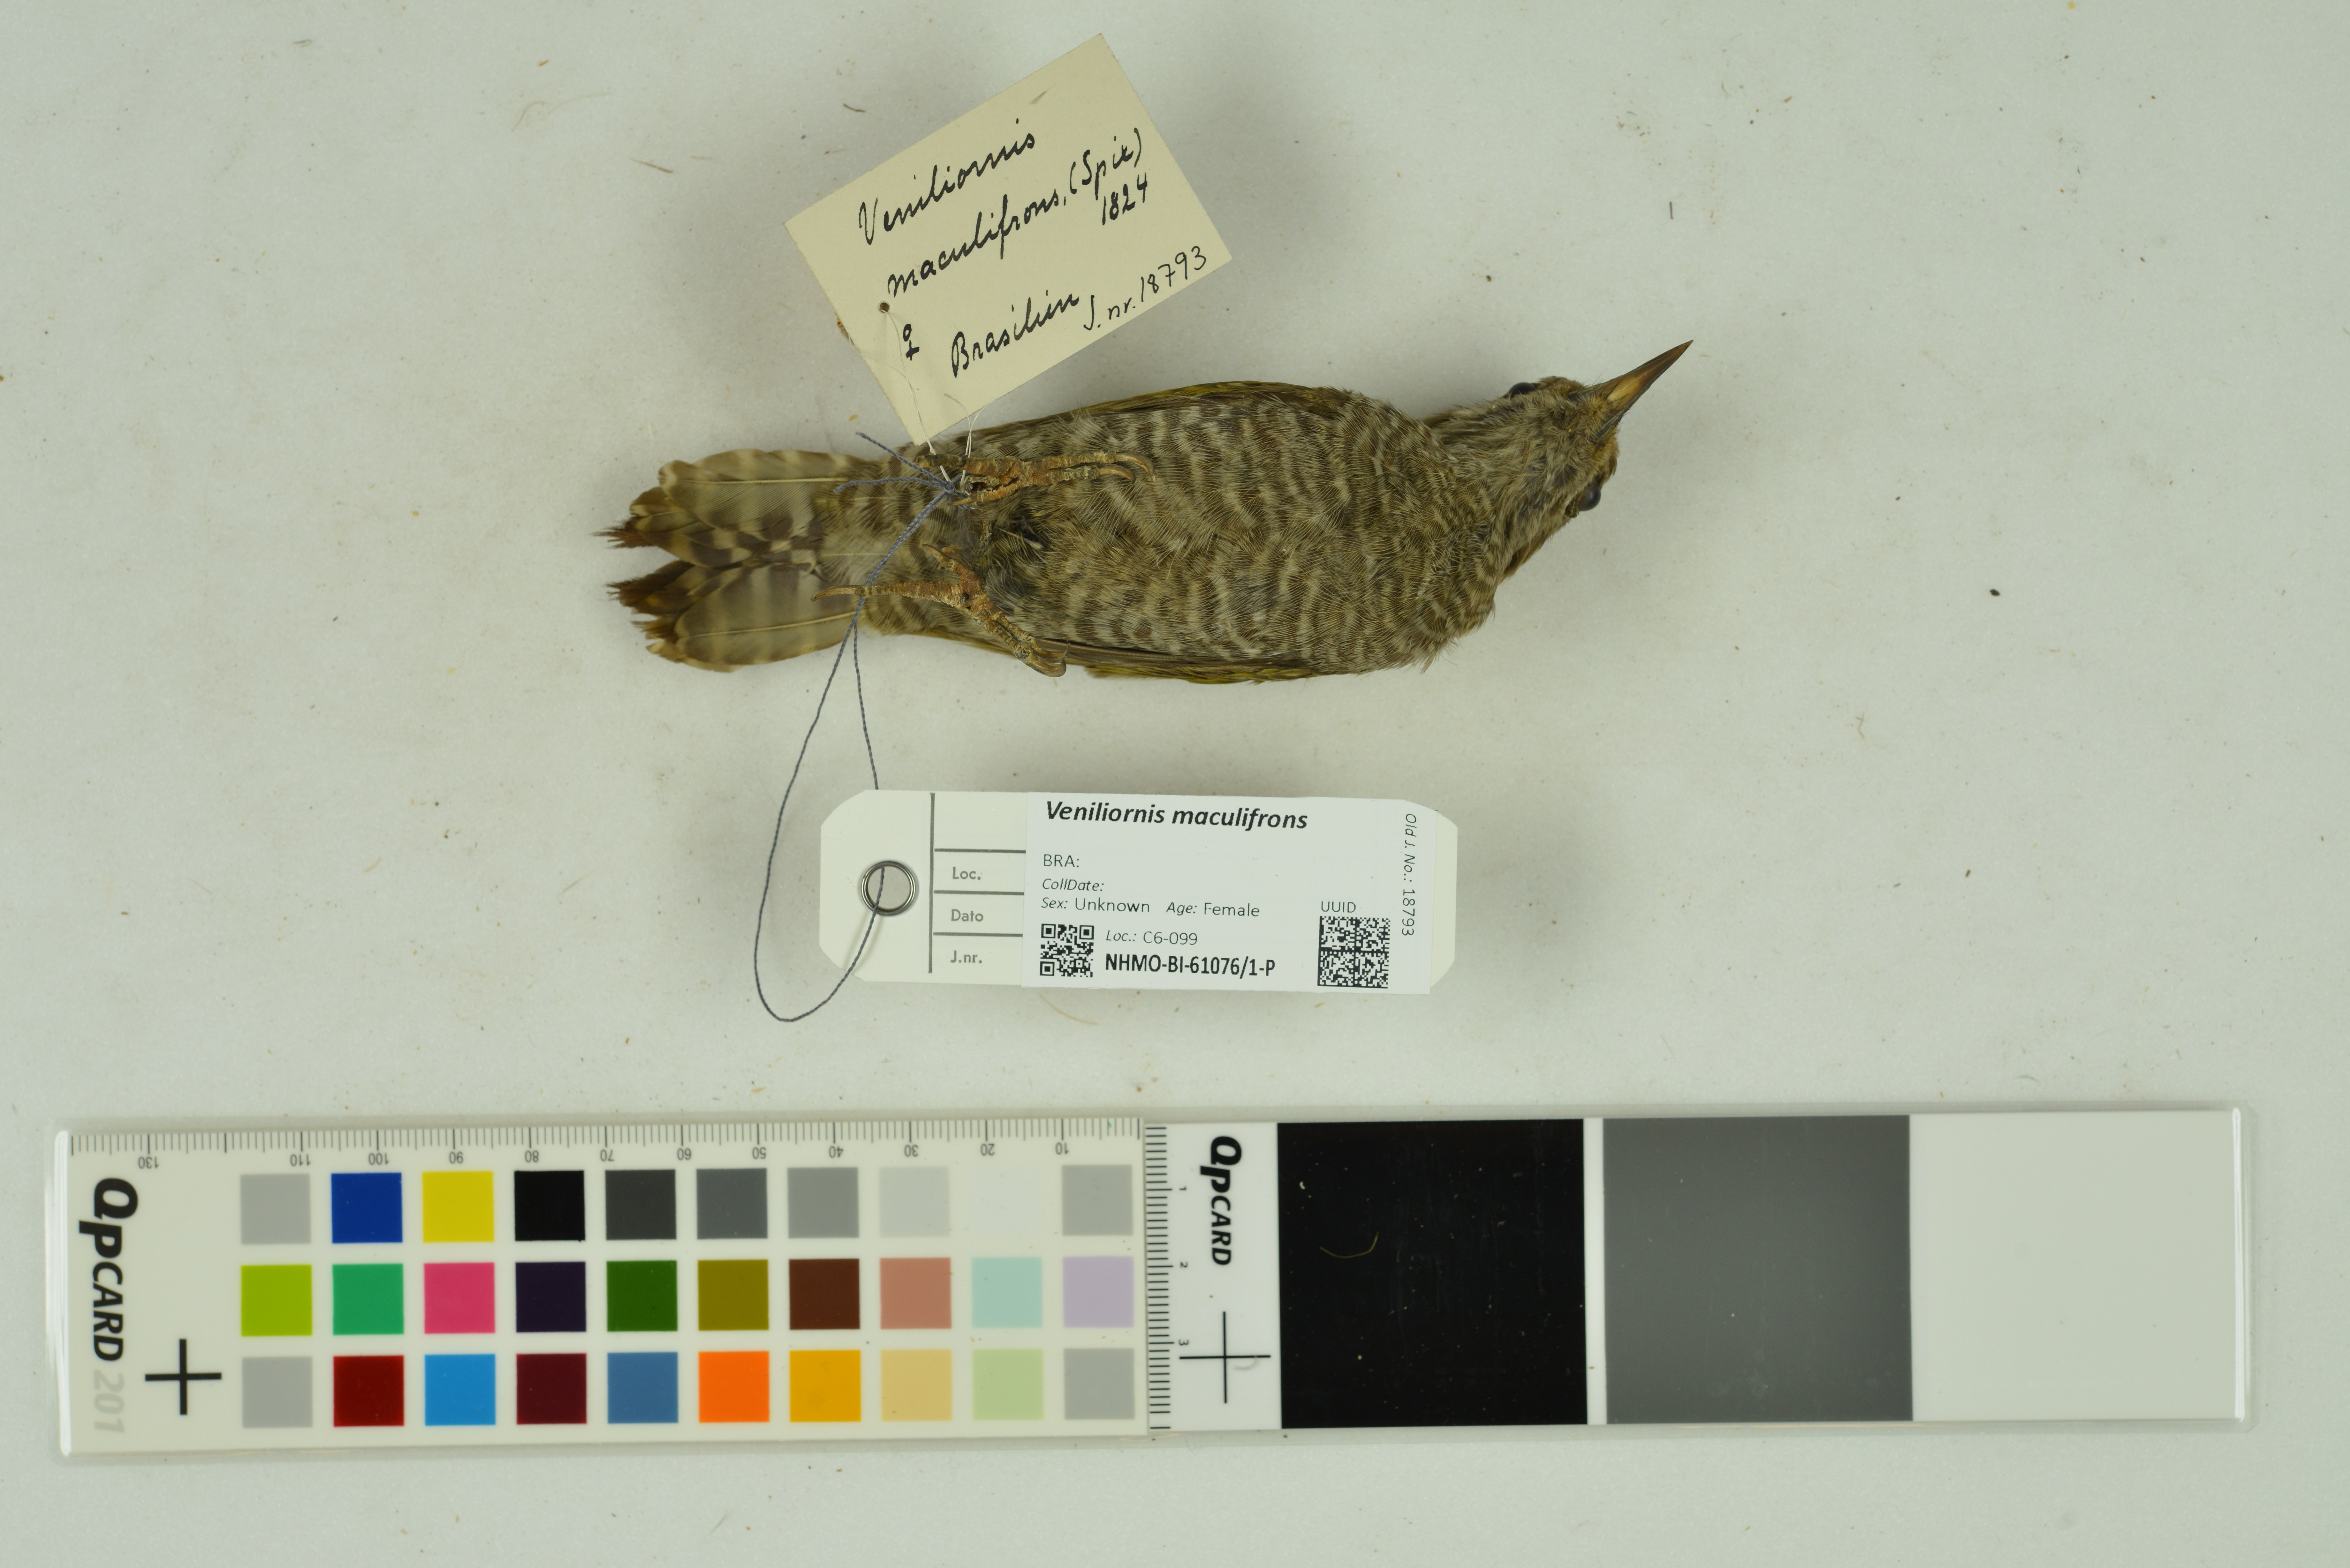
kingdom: Animalia
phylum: Chordata
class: Aves
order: Piciformes
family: Picidae
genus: Veniliornis
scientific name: Veniliornis maculifrons
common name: Yellow-eared woodpecker
